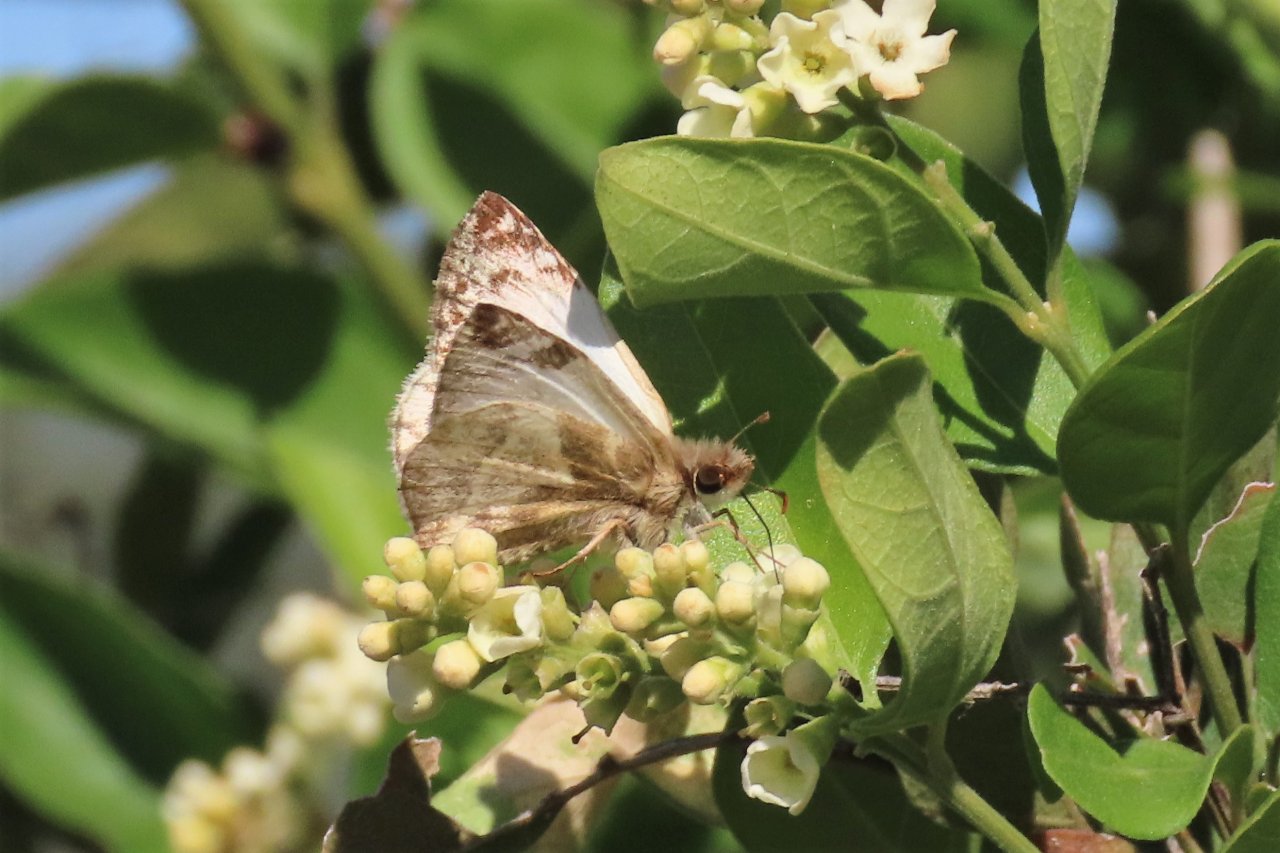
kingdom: Animalia
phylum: Arthropoda
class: Insecta
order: Lepidoptera
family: Hesperiidae
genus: Heliopetes
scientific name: Heliopetes laviana
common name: Laviana White-Skipper
